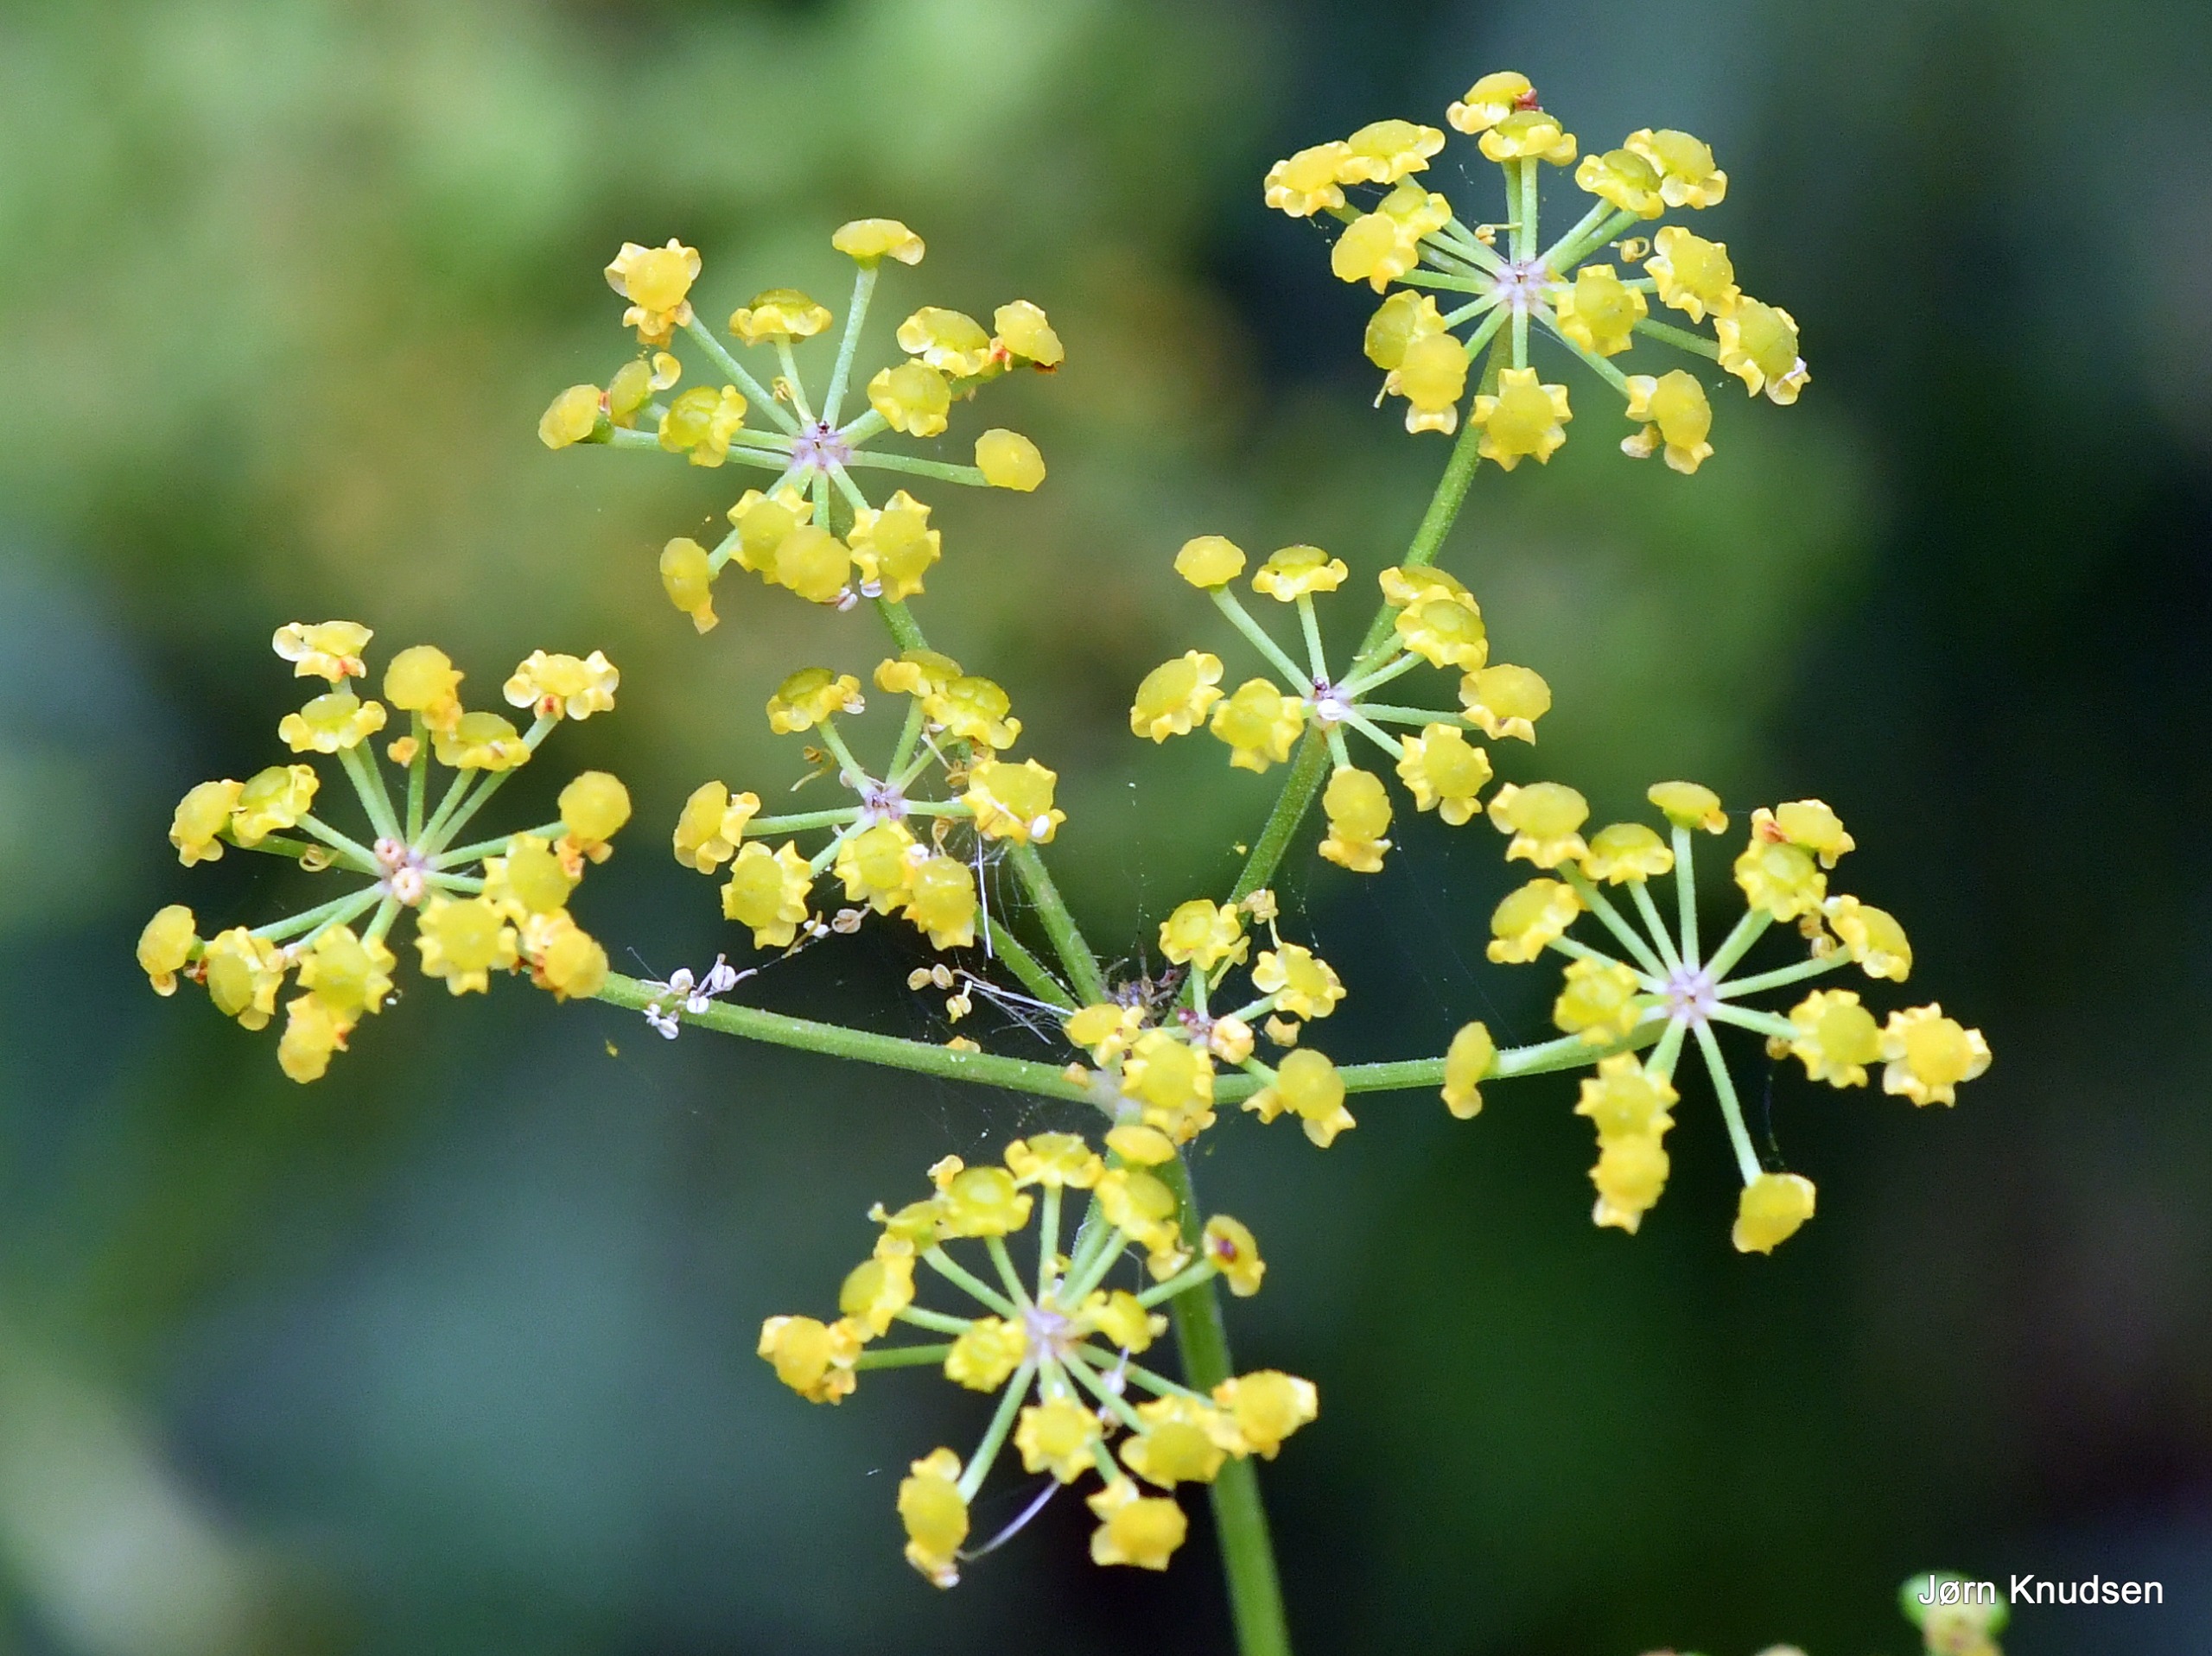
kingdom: Plantae
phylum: Tracheophyta
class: Magnoliopsida
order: Apiales
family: Apiaceae
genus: Pastinaca
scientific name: Pastinaca sativa
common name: Pastinak
